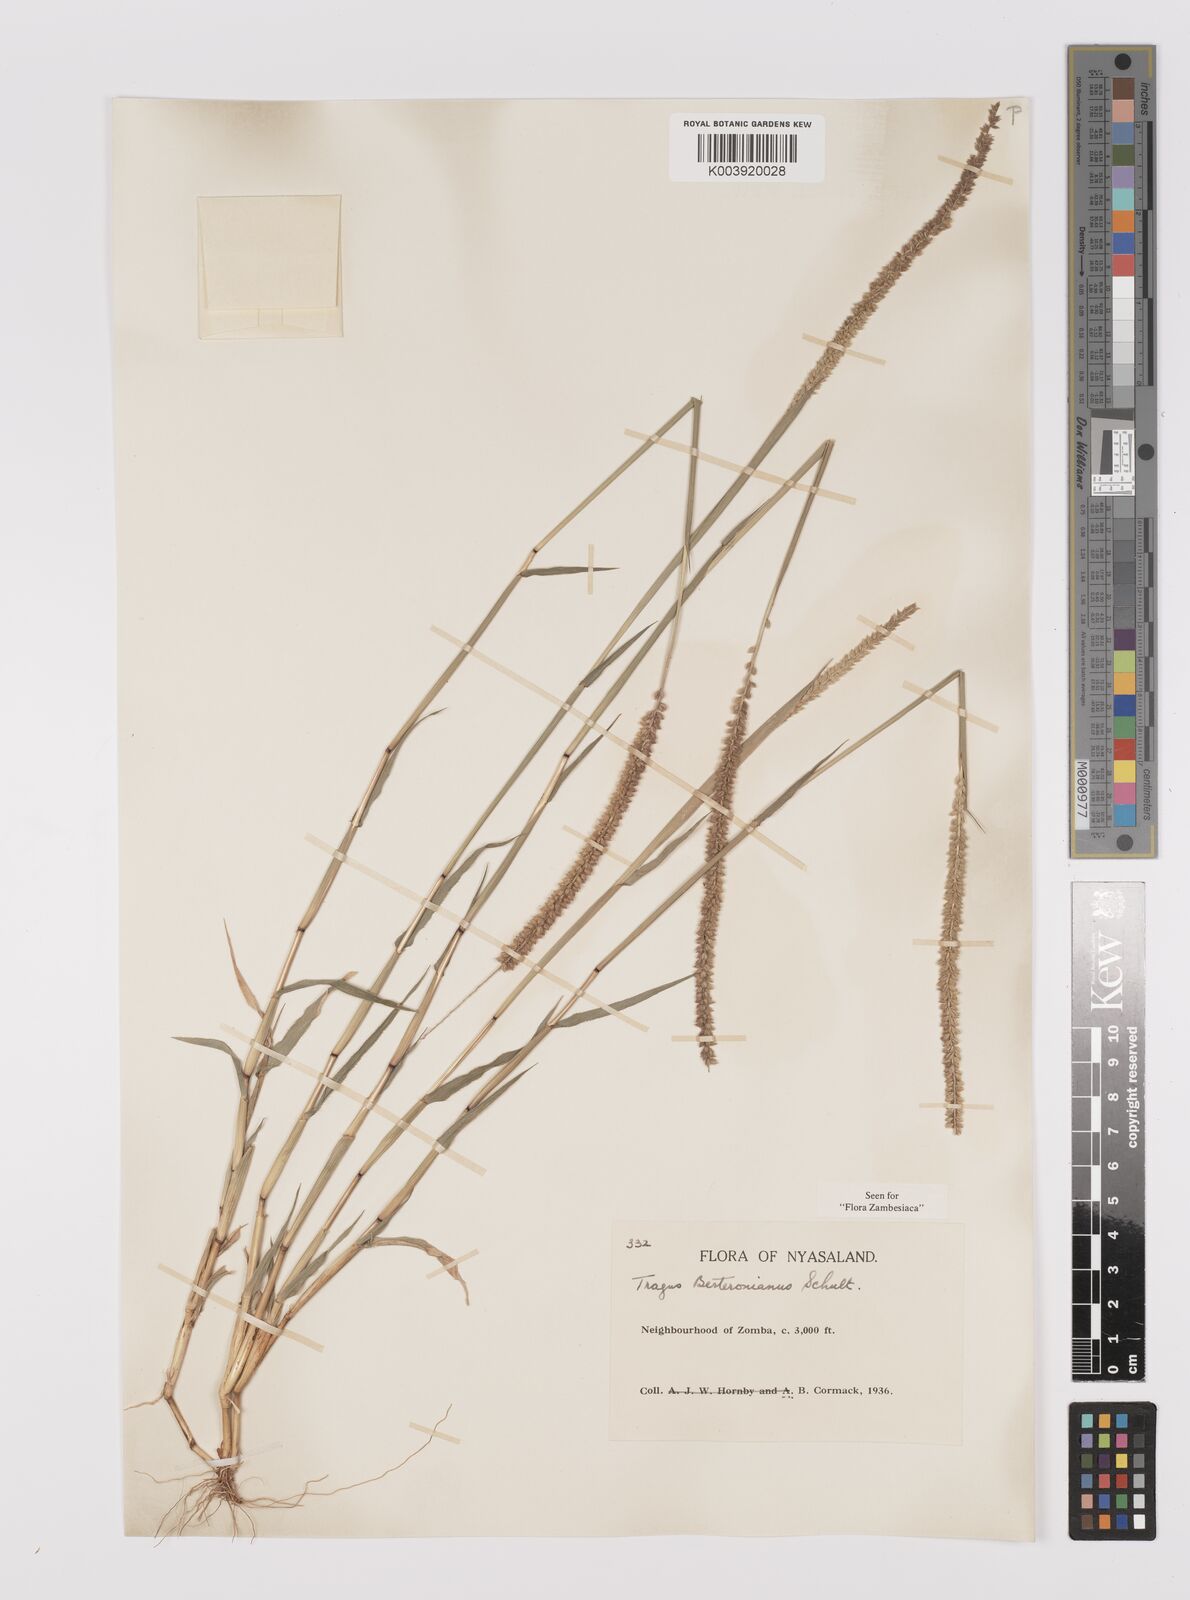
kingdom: Plantae
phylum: Tracheophyta
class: Liliopsida
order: Poales
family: Poaceae
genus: Tragus
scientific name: Tragus berteronianus
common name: African bur-grass
